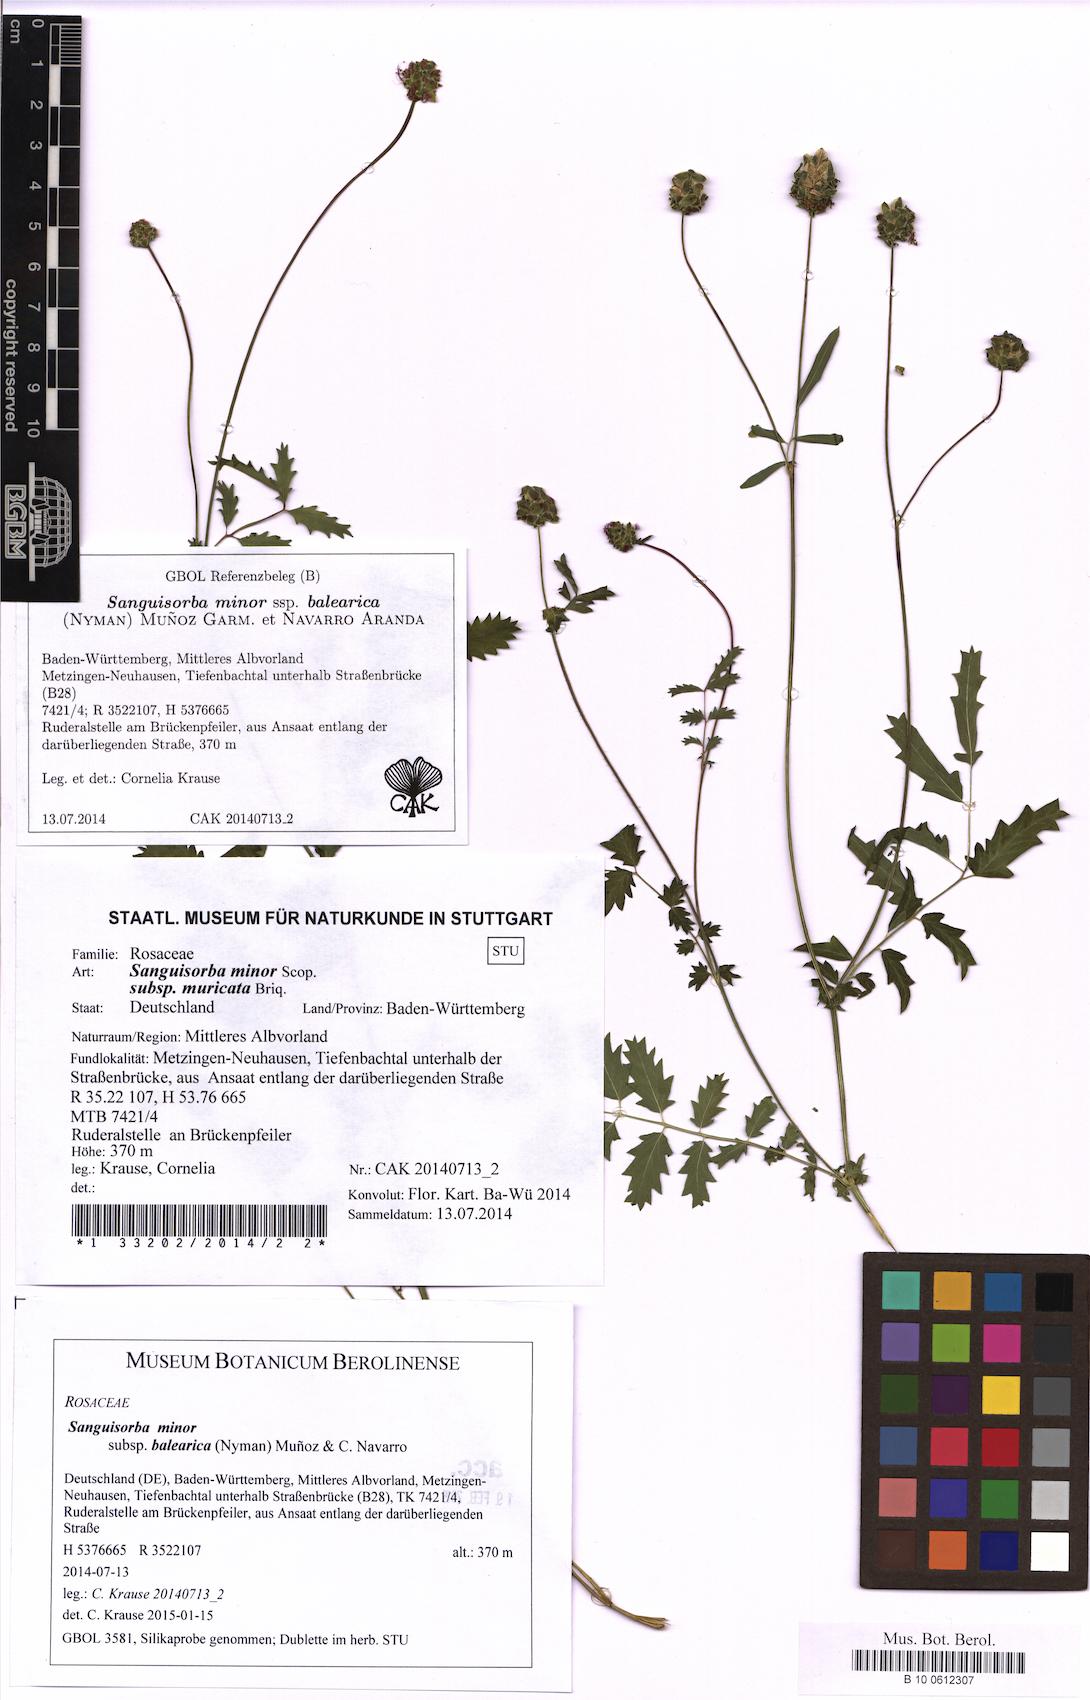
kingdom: Plantae
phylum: Tracheophyta
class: Magnoliopsida
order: Rosales
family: Rosaceae
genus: Poterium
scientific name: Poterium sanguisorba
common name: Salad burnet
